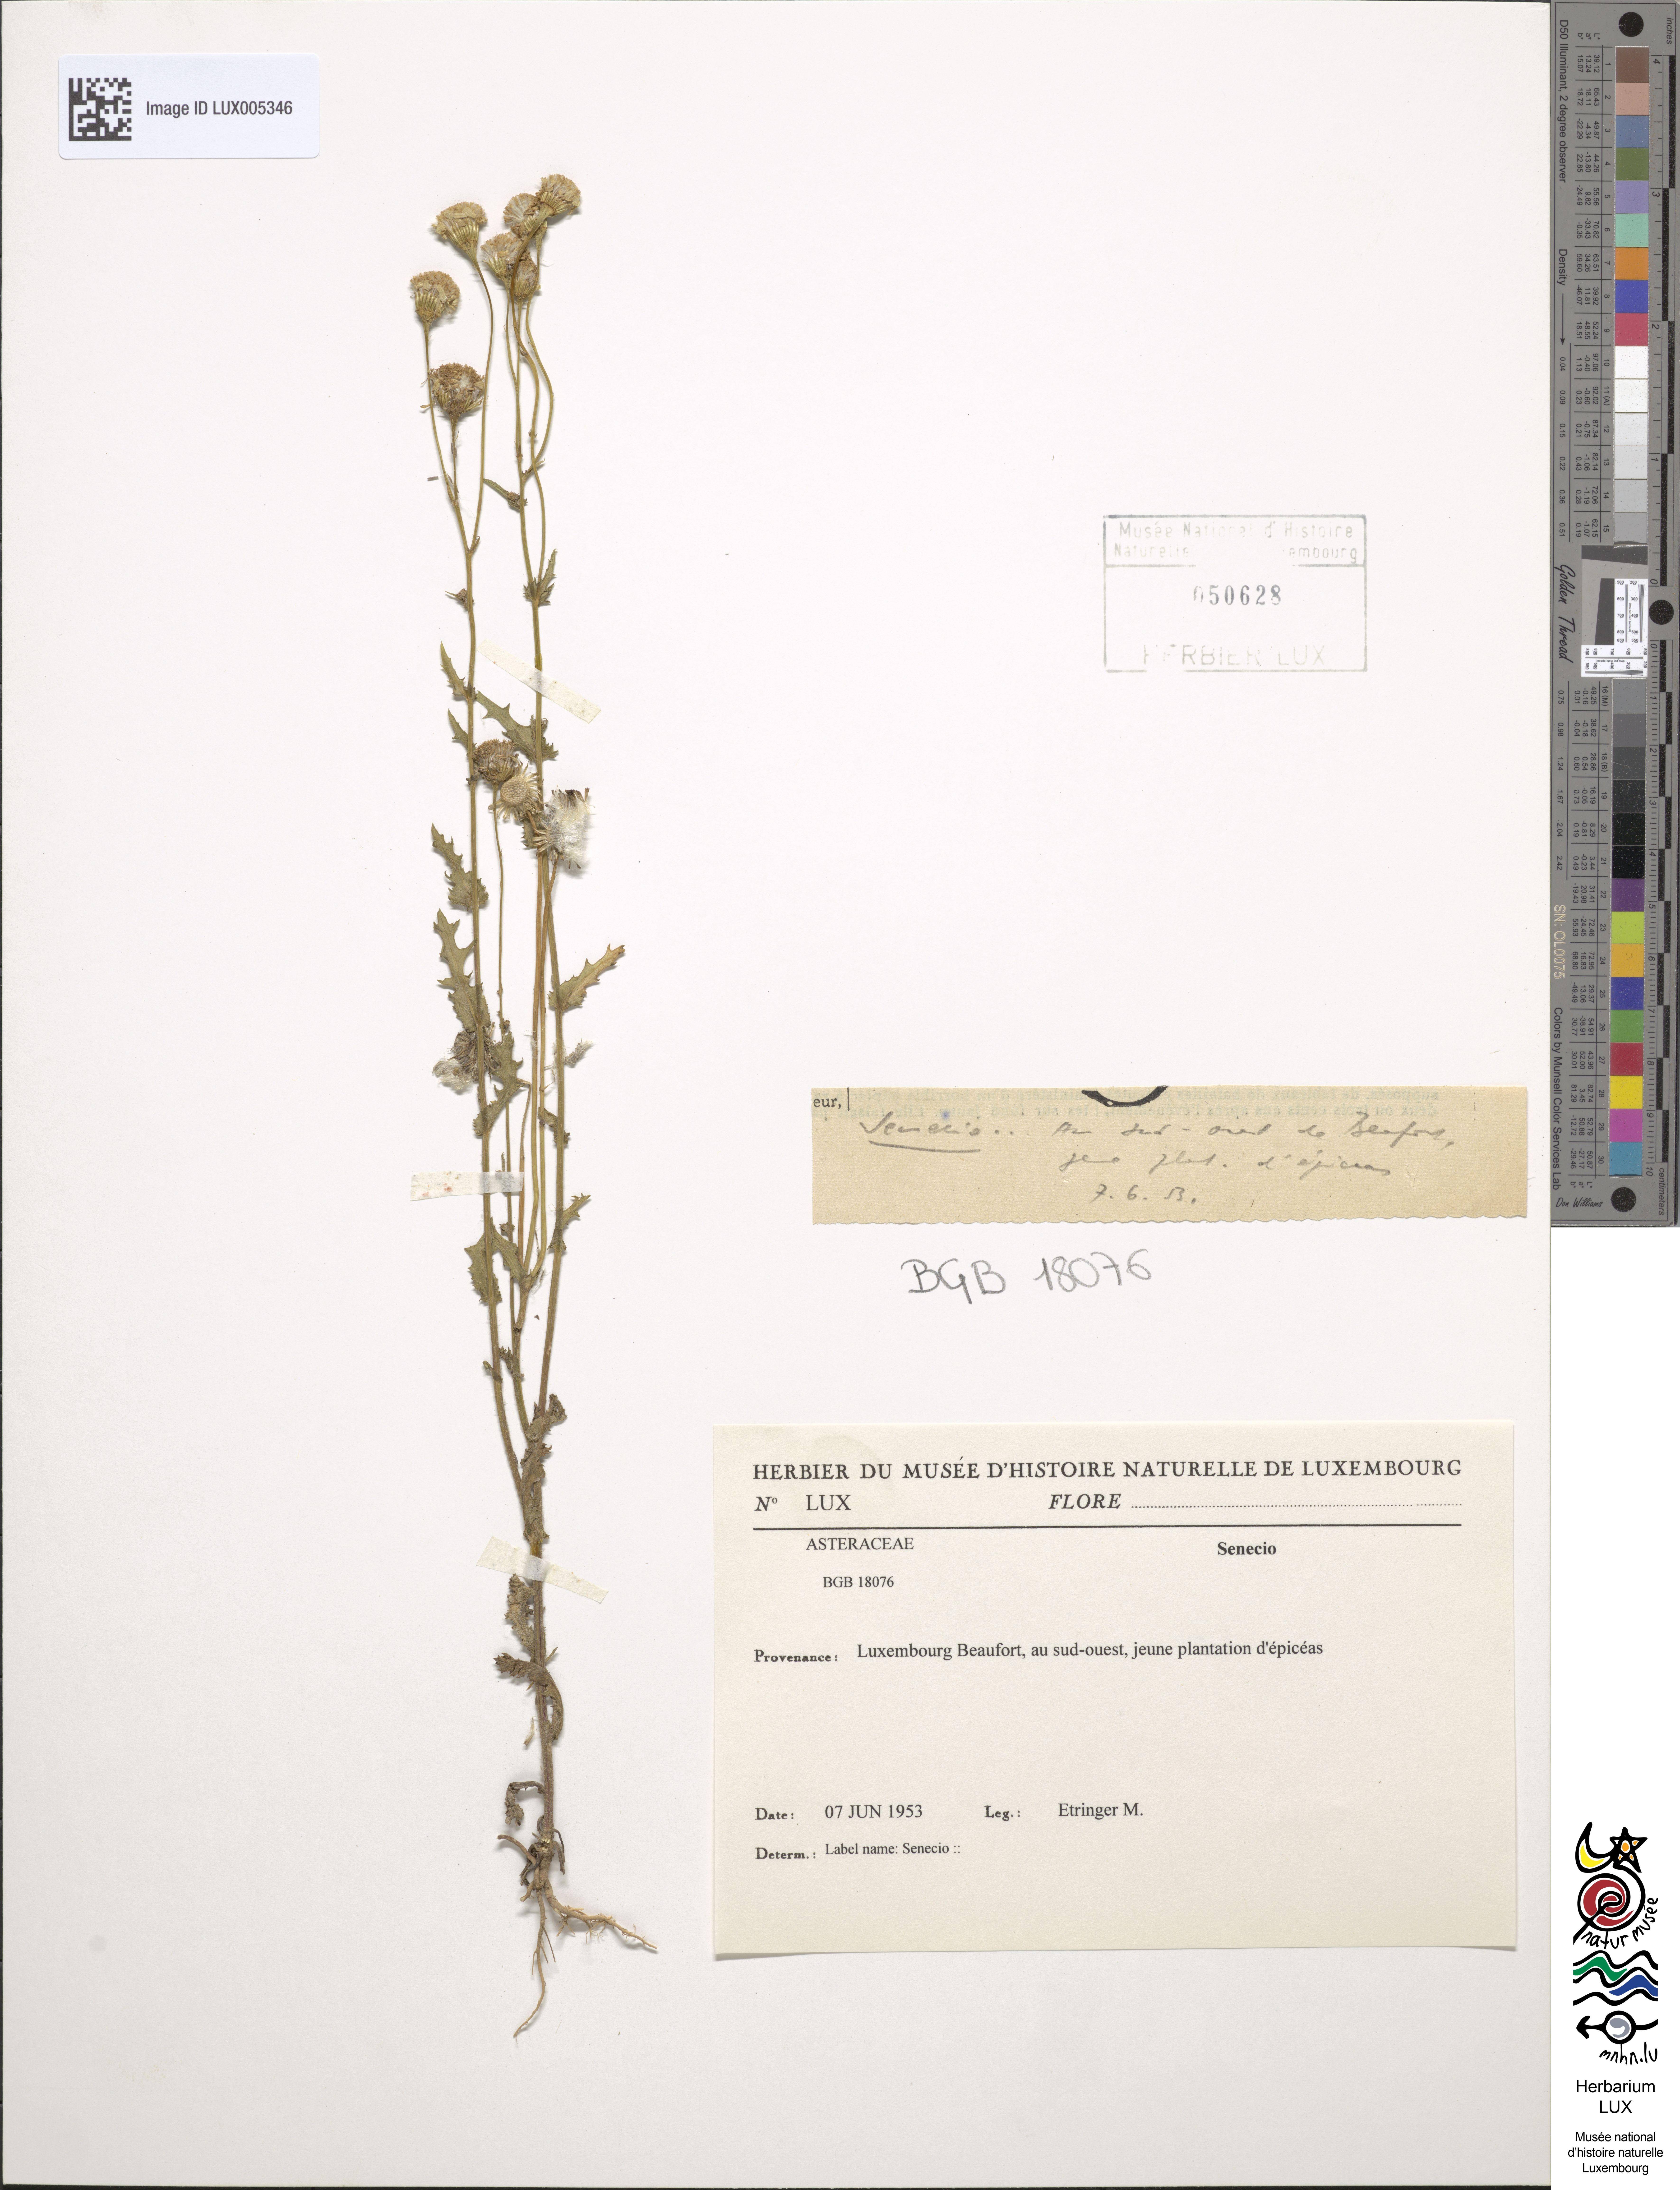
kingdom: Plantae
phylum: Tracheophyta
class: Magnoliopsida
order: Asterales
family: Asteraceae
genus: Senecio
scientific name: Senecio
